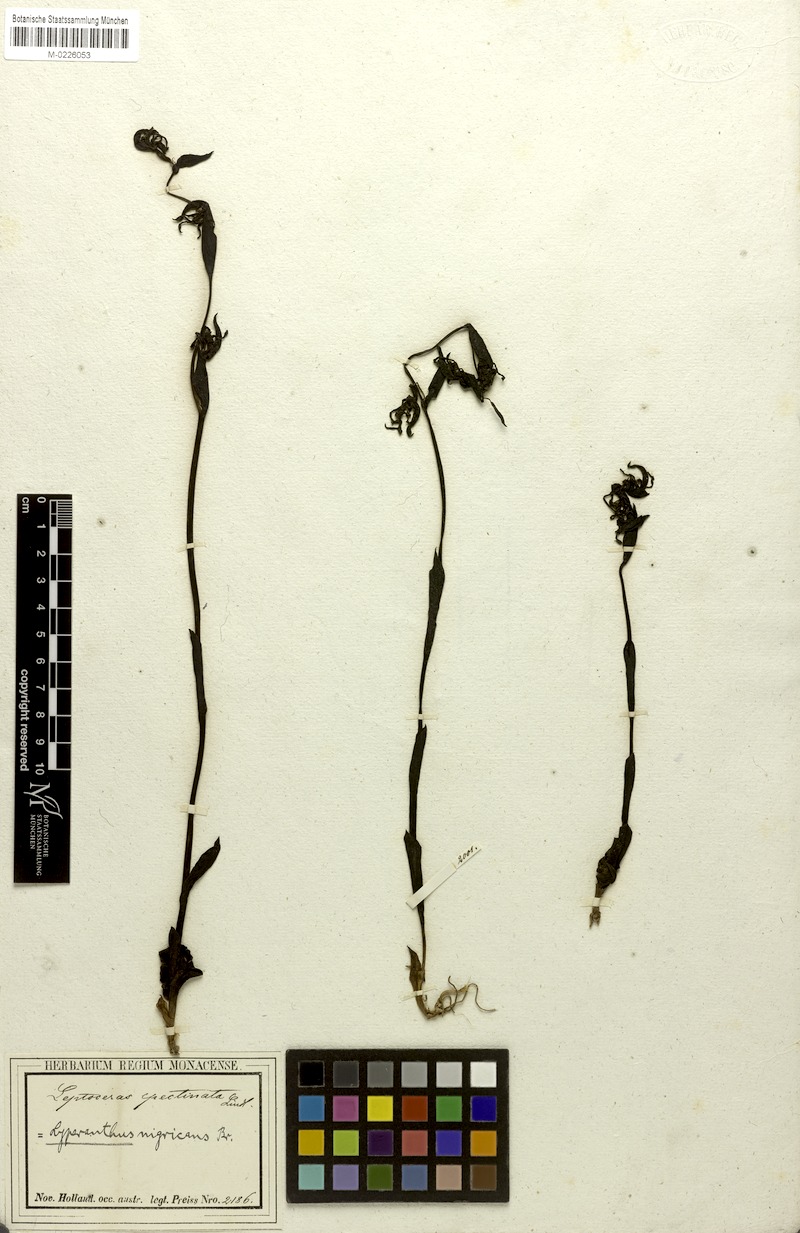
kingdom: Plantae
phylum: Tracheophyta
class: Liliopsida
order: Asparagales
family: Orchidaceae
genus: Leporella
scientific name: Leporella fimbriata
